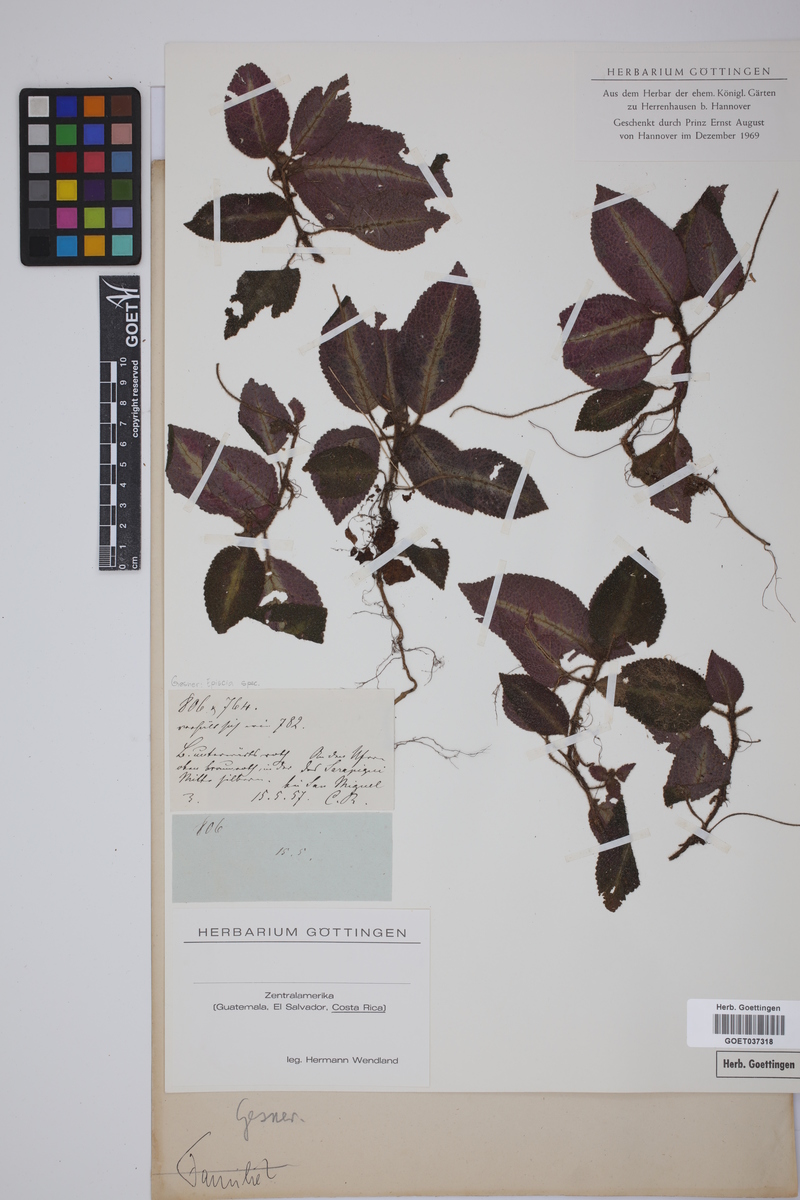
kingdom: Plantae
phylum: Tracheophyta
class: Magnoliopsida
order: Lamiales
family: Gesneriaceae
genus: Episcia
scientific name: Episcia
